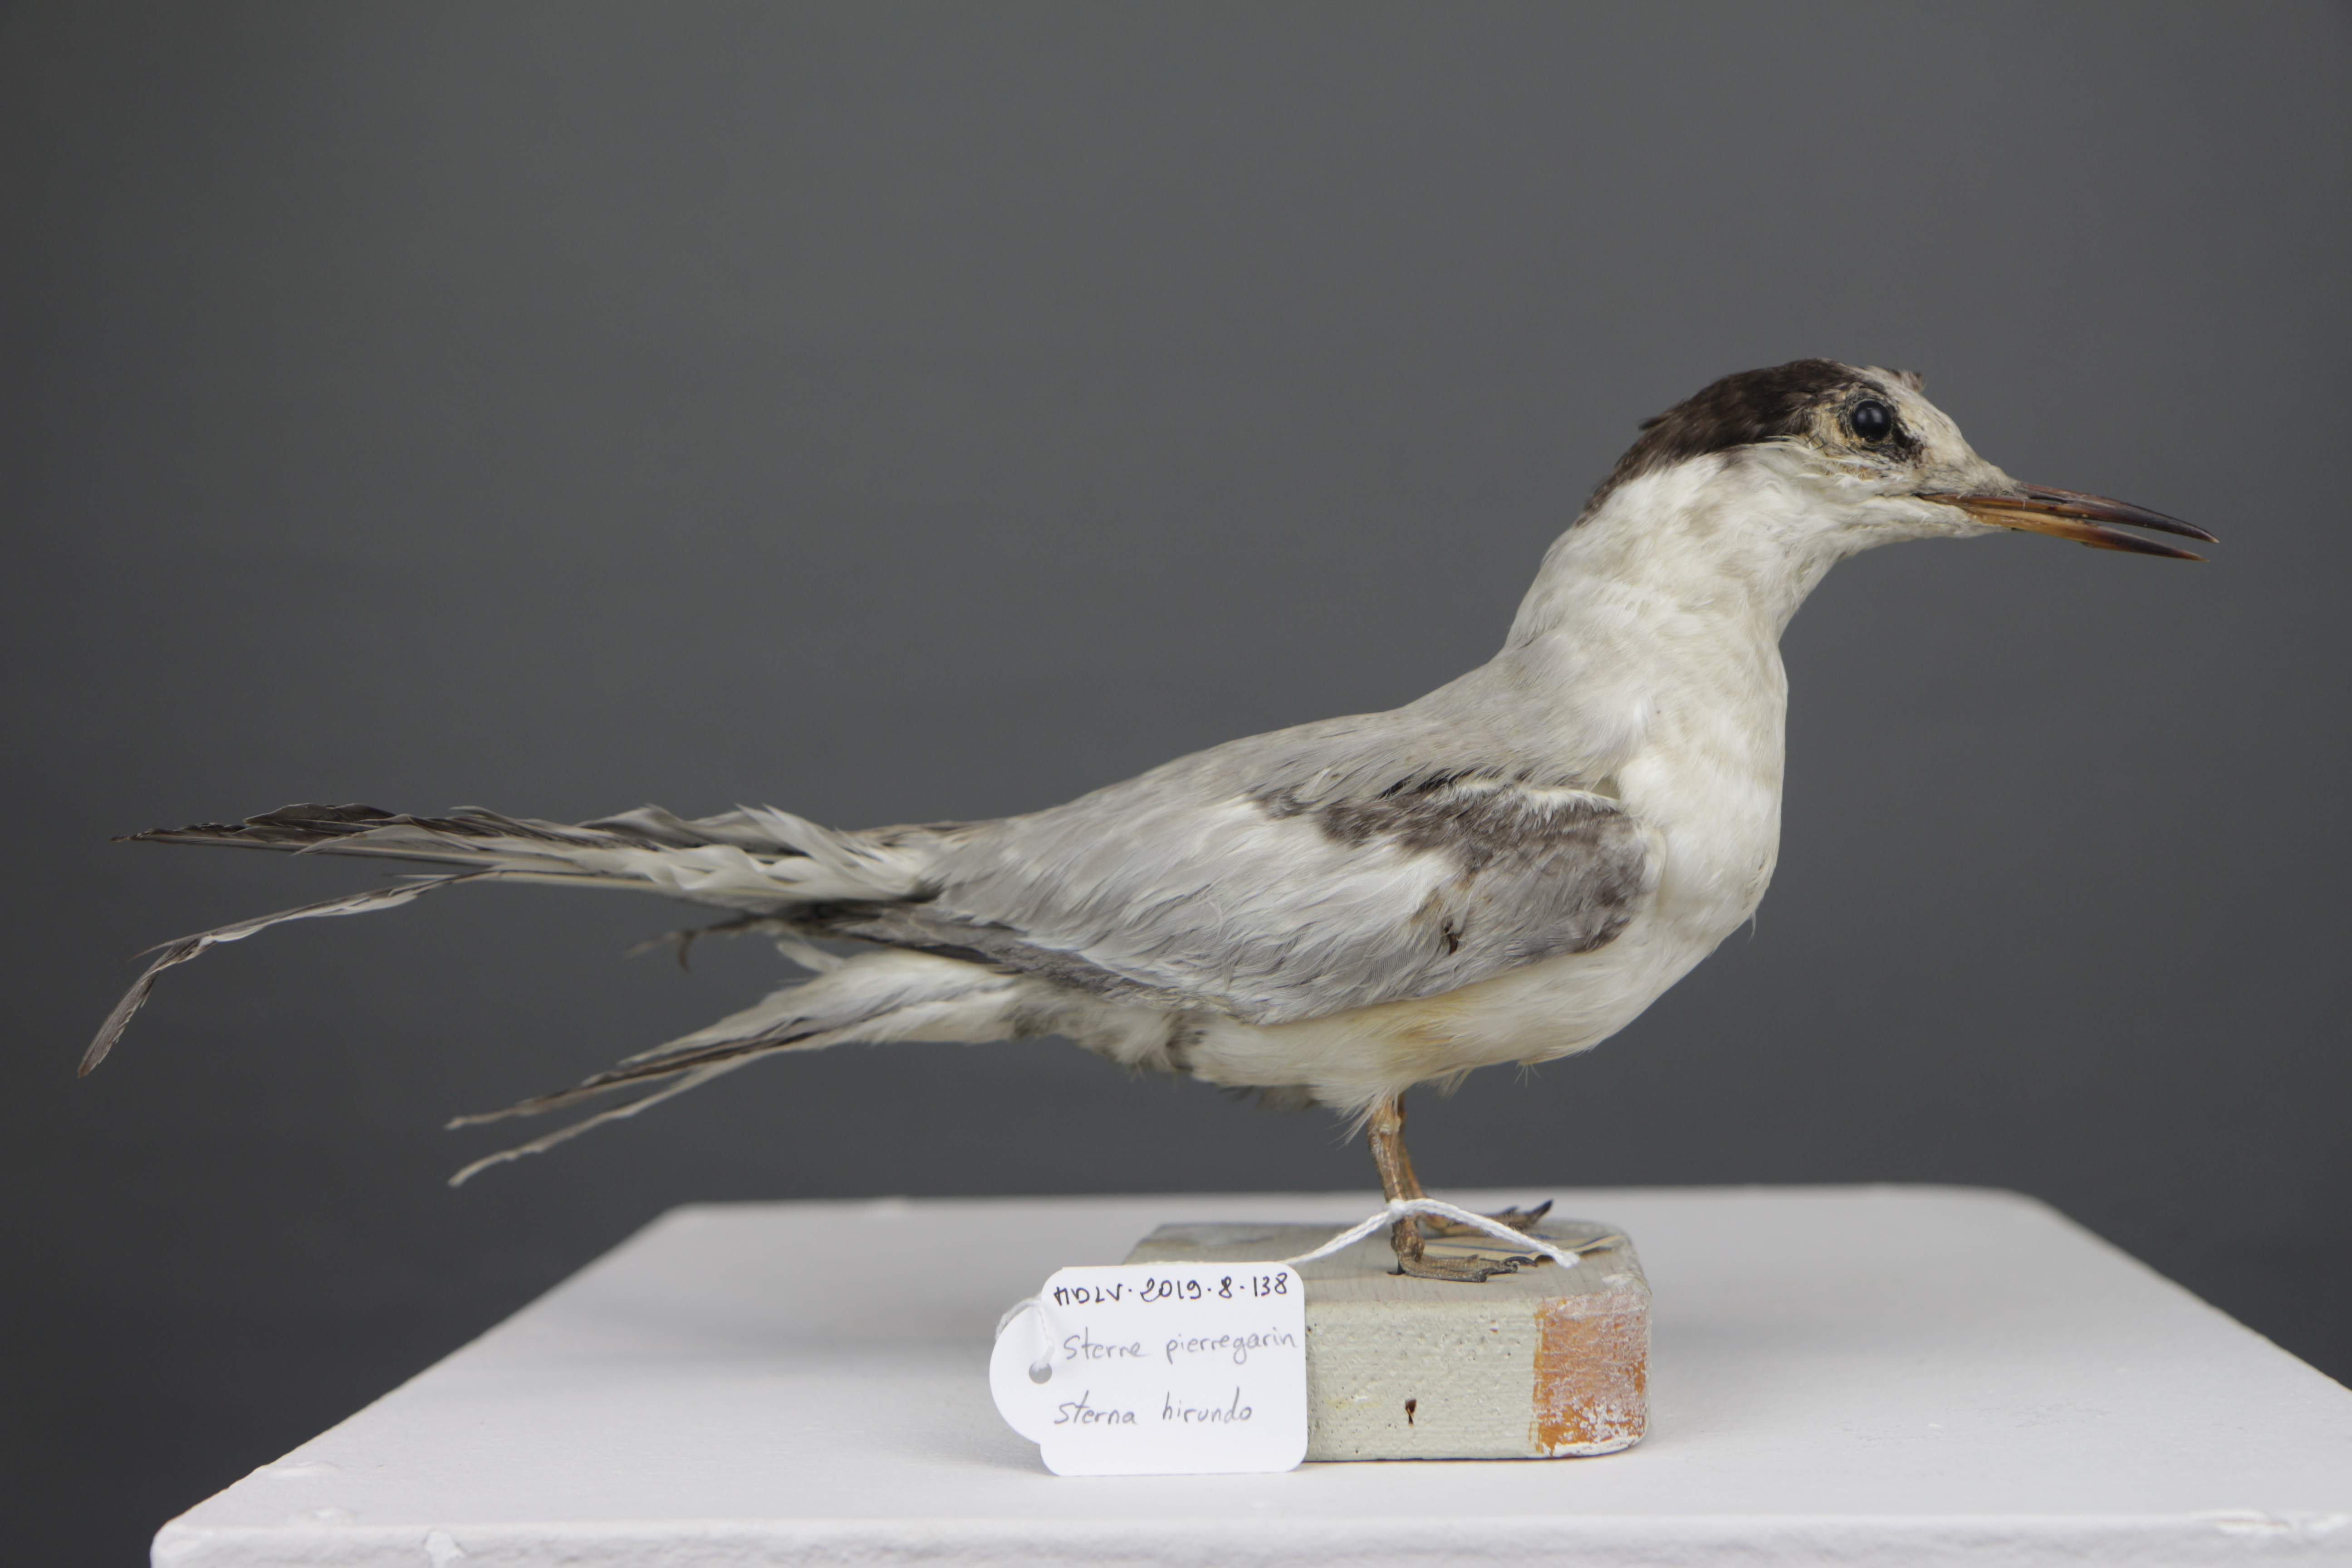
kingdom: Animalia
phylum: Chordata
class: Aves
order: Charadriiformes
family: Laridae
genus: Sterna
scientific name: Sterna hirundo
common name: Common tern
